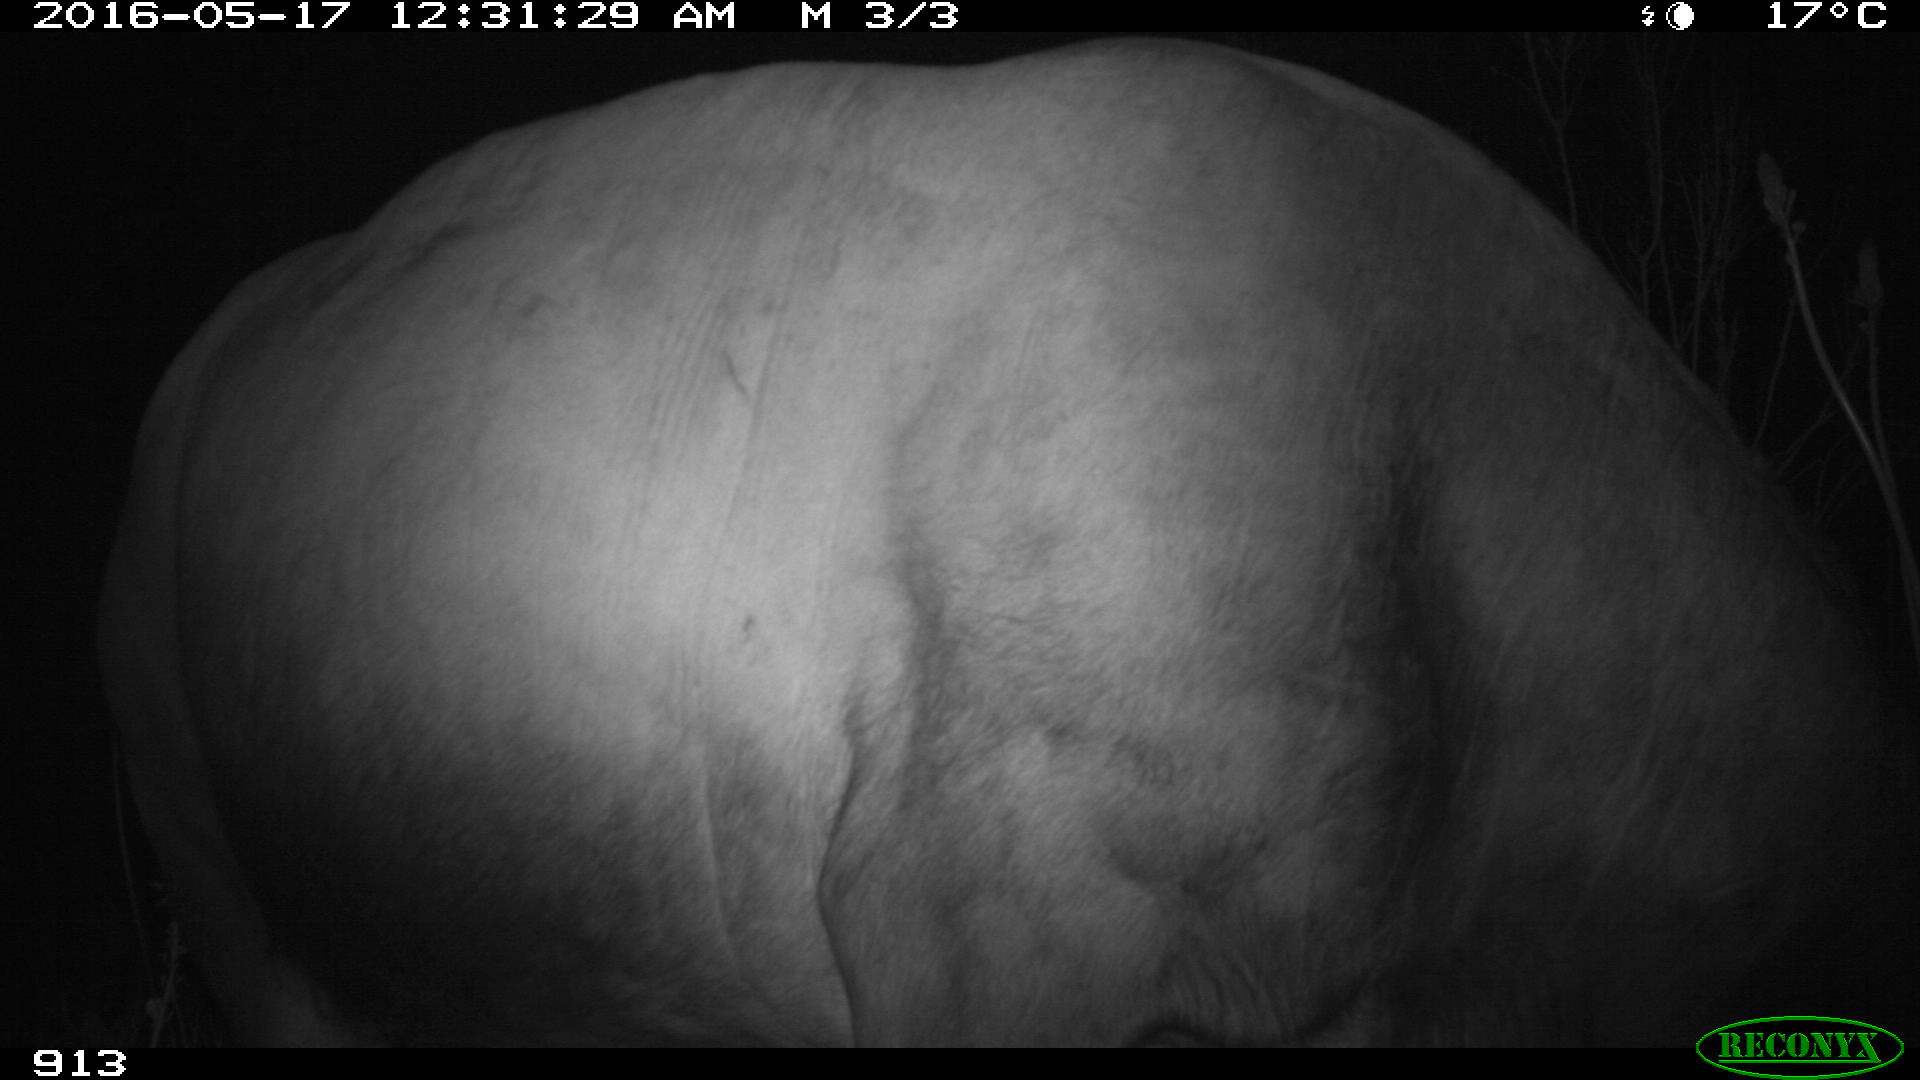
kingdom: Animalia
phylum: Chordata
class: Mammalia
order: Artiodactyla
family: Bovidae
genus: Bos
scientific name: Bos taurus
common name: Domesticated cattle
